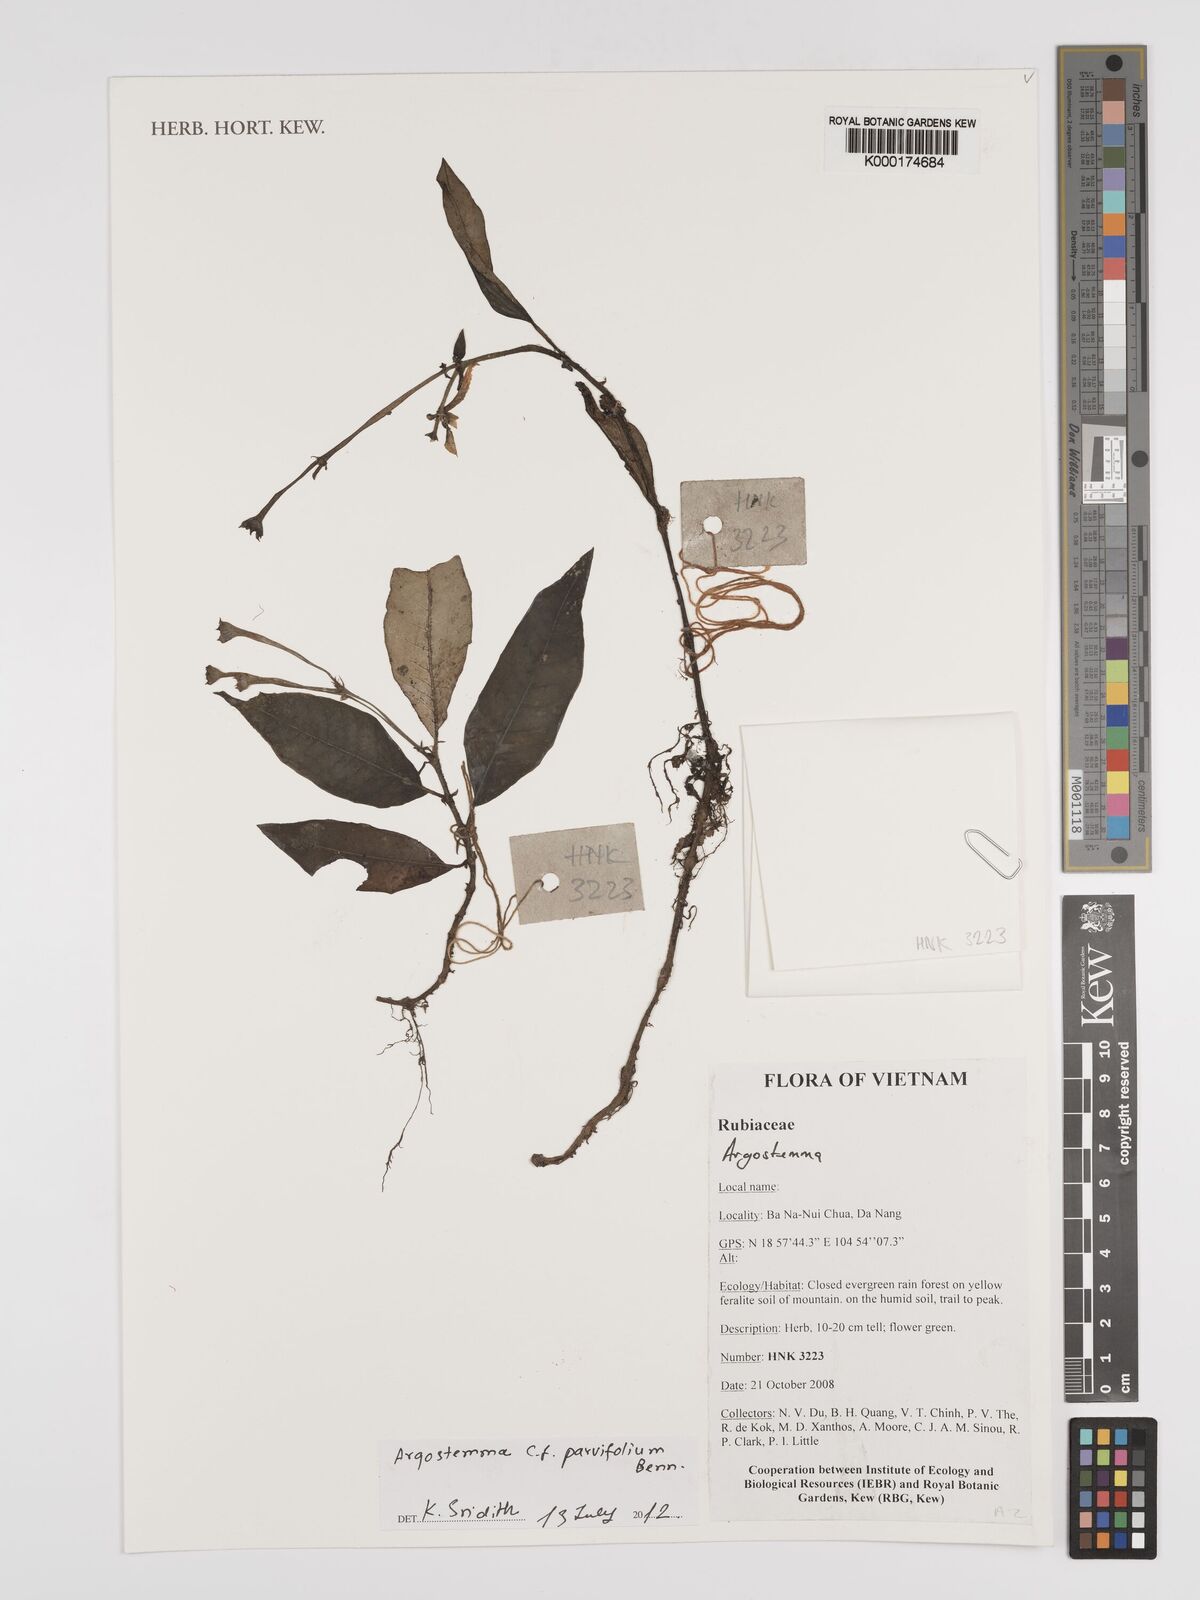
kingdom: Plantae
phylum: Tracheophyta
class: Magnoliopsida
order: Gentianales
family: Rubiaceae
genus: Argostemma
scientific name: Argostemma parvifolium
